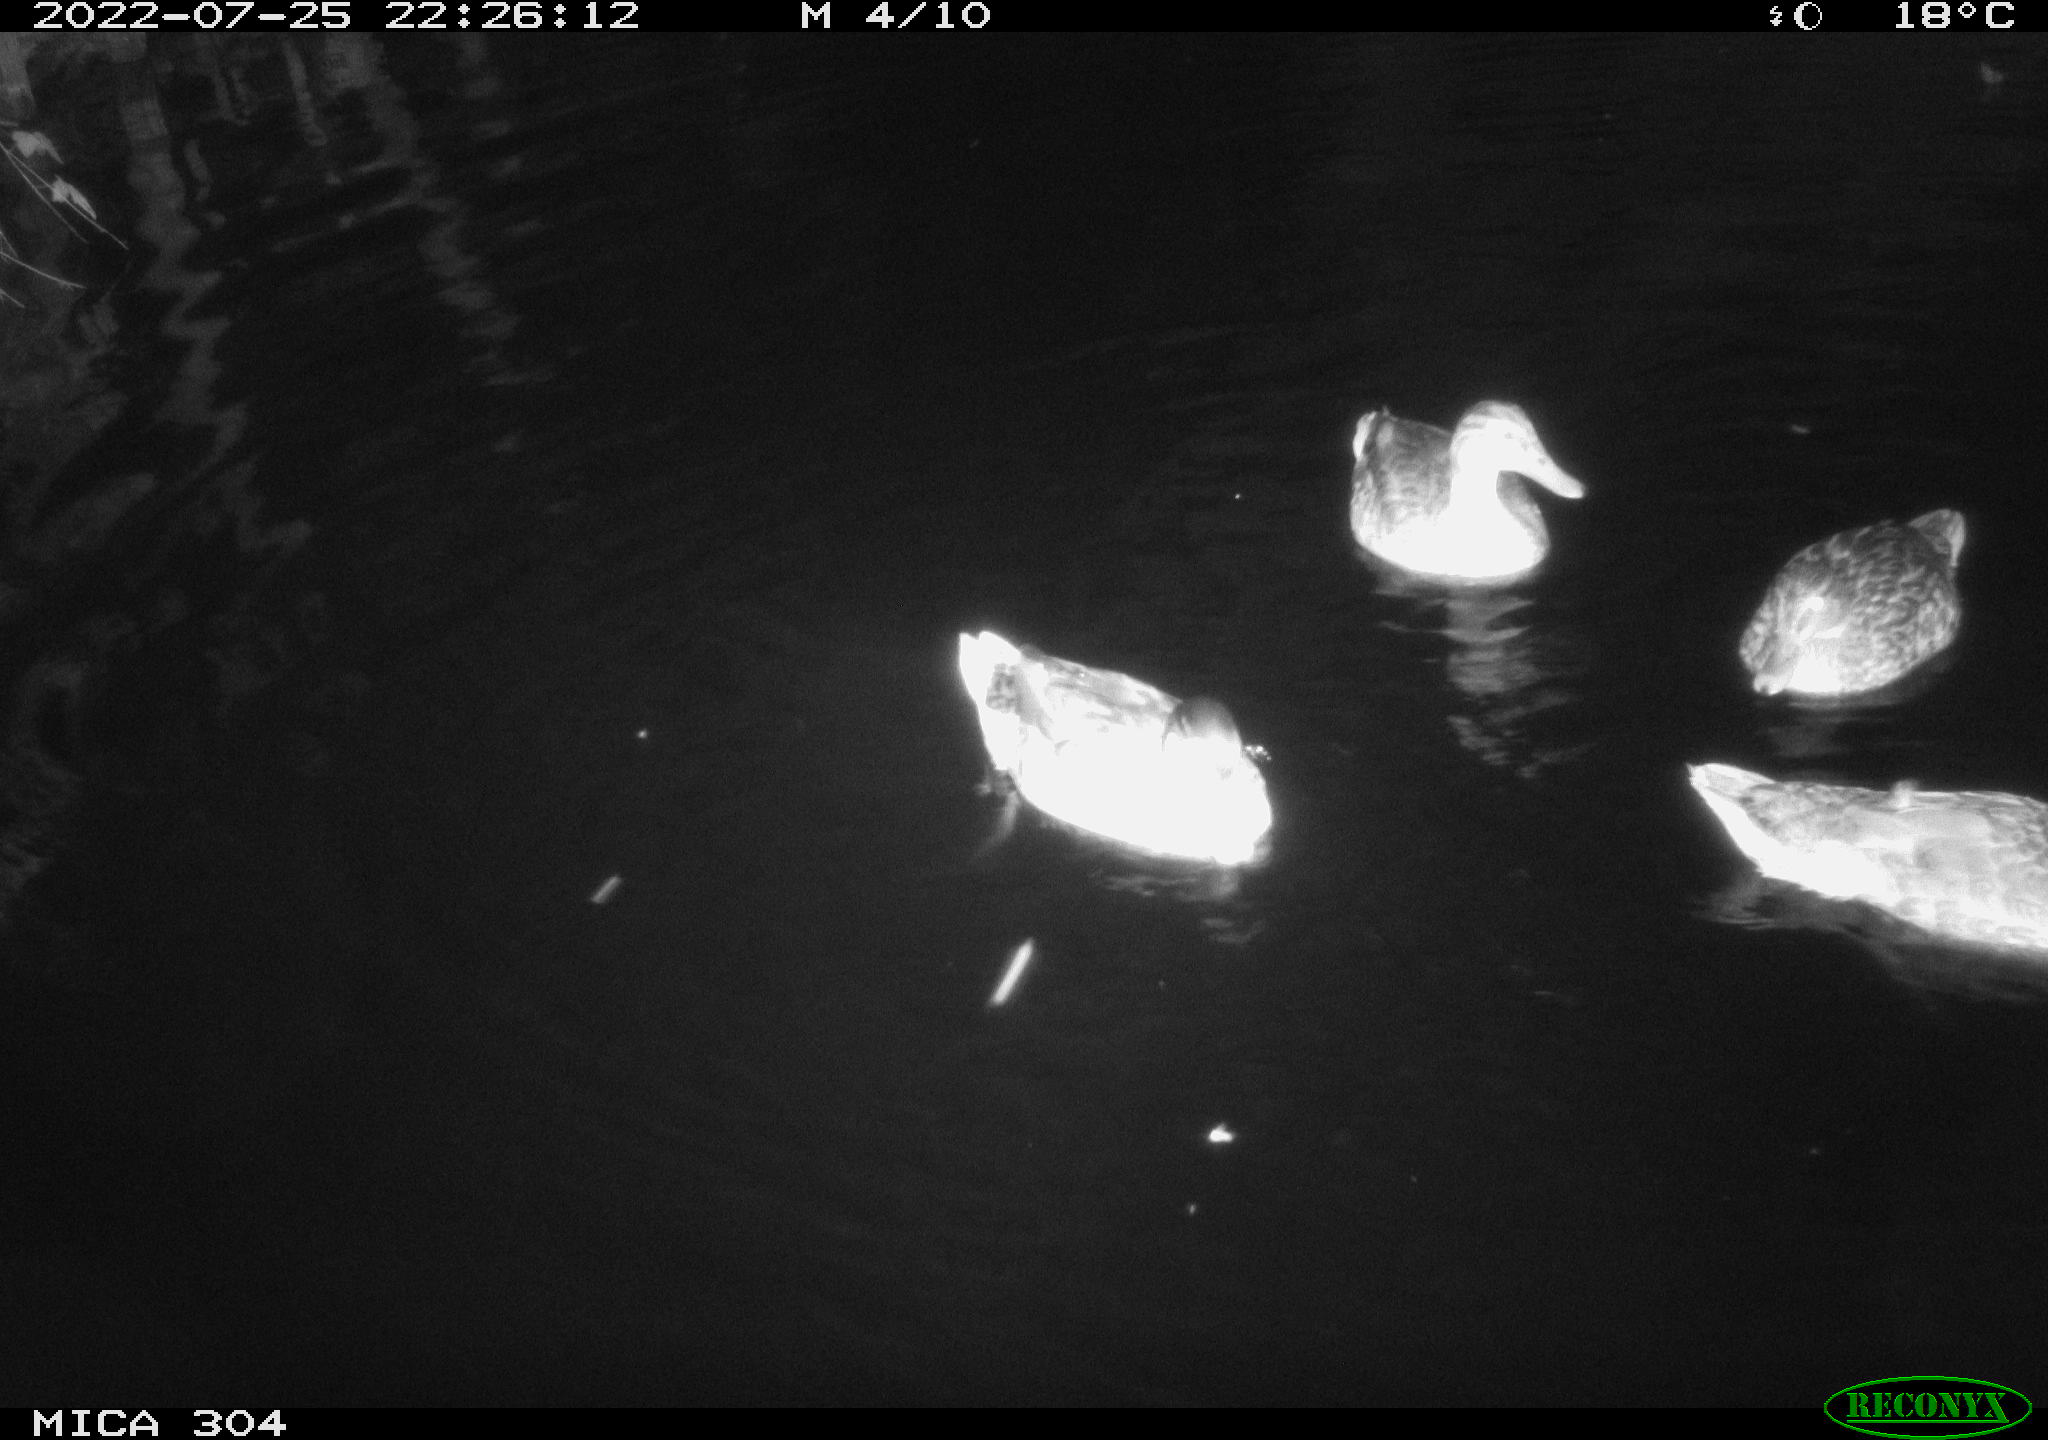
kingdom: Animalia
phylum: Chordata
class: Aves
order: Anseriformes
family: Anatidae
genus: Anas
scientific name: Anas platyrhynchos
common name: Mallard
